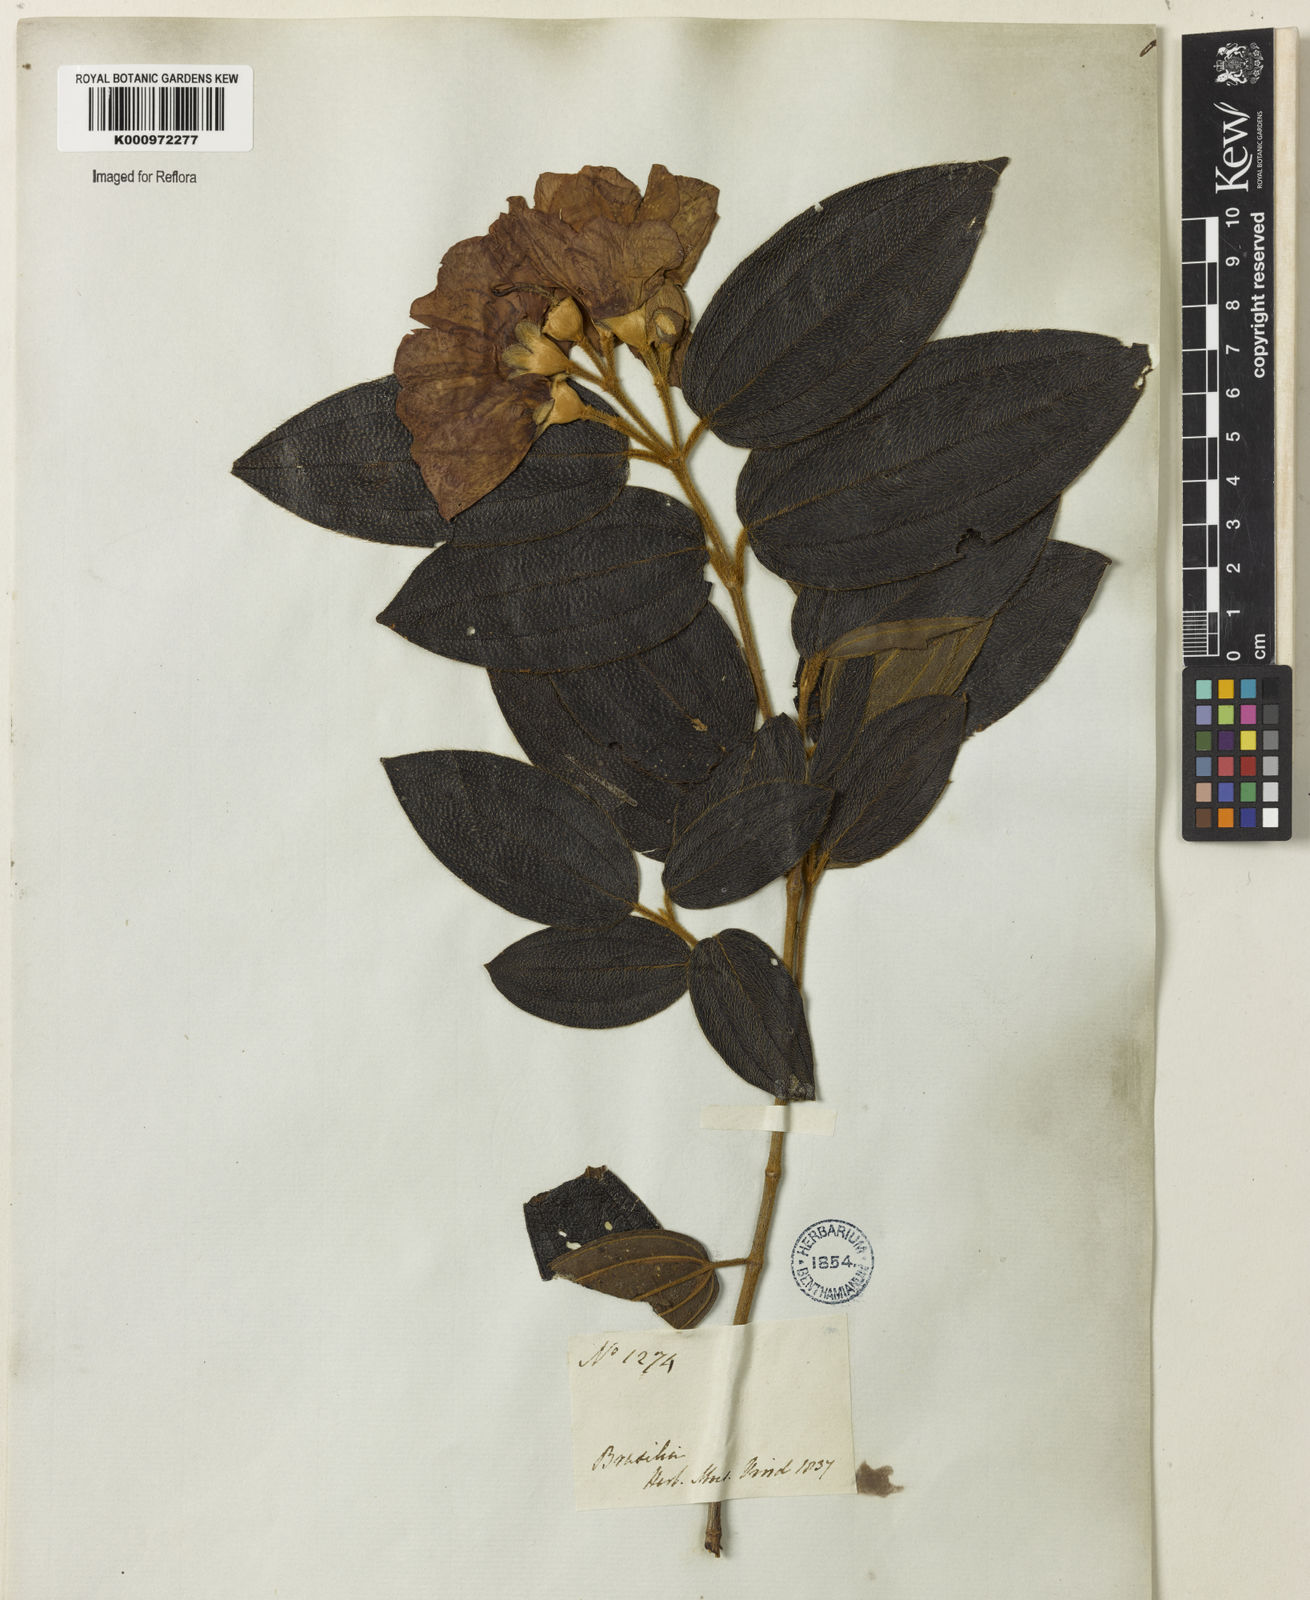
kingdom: Plantae
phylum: Tracheophyta
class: Magnoliopsida
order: Myrtales
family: Melastomataceae
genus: Pleroma
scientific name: Pleroma canescens
